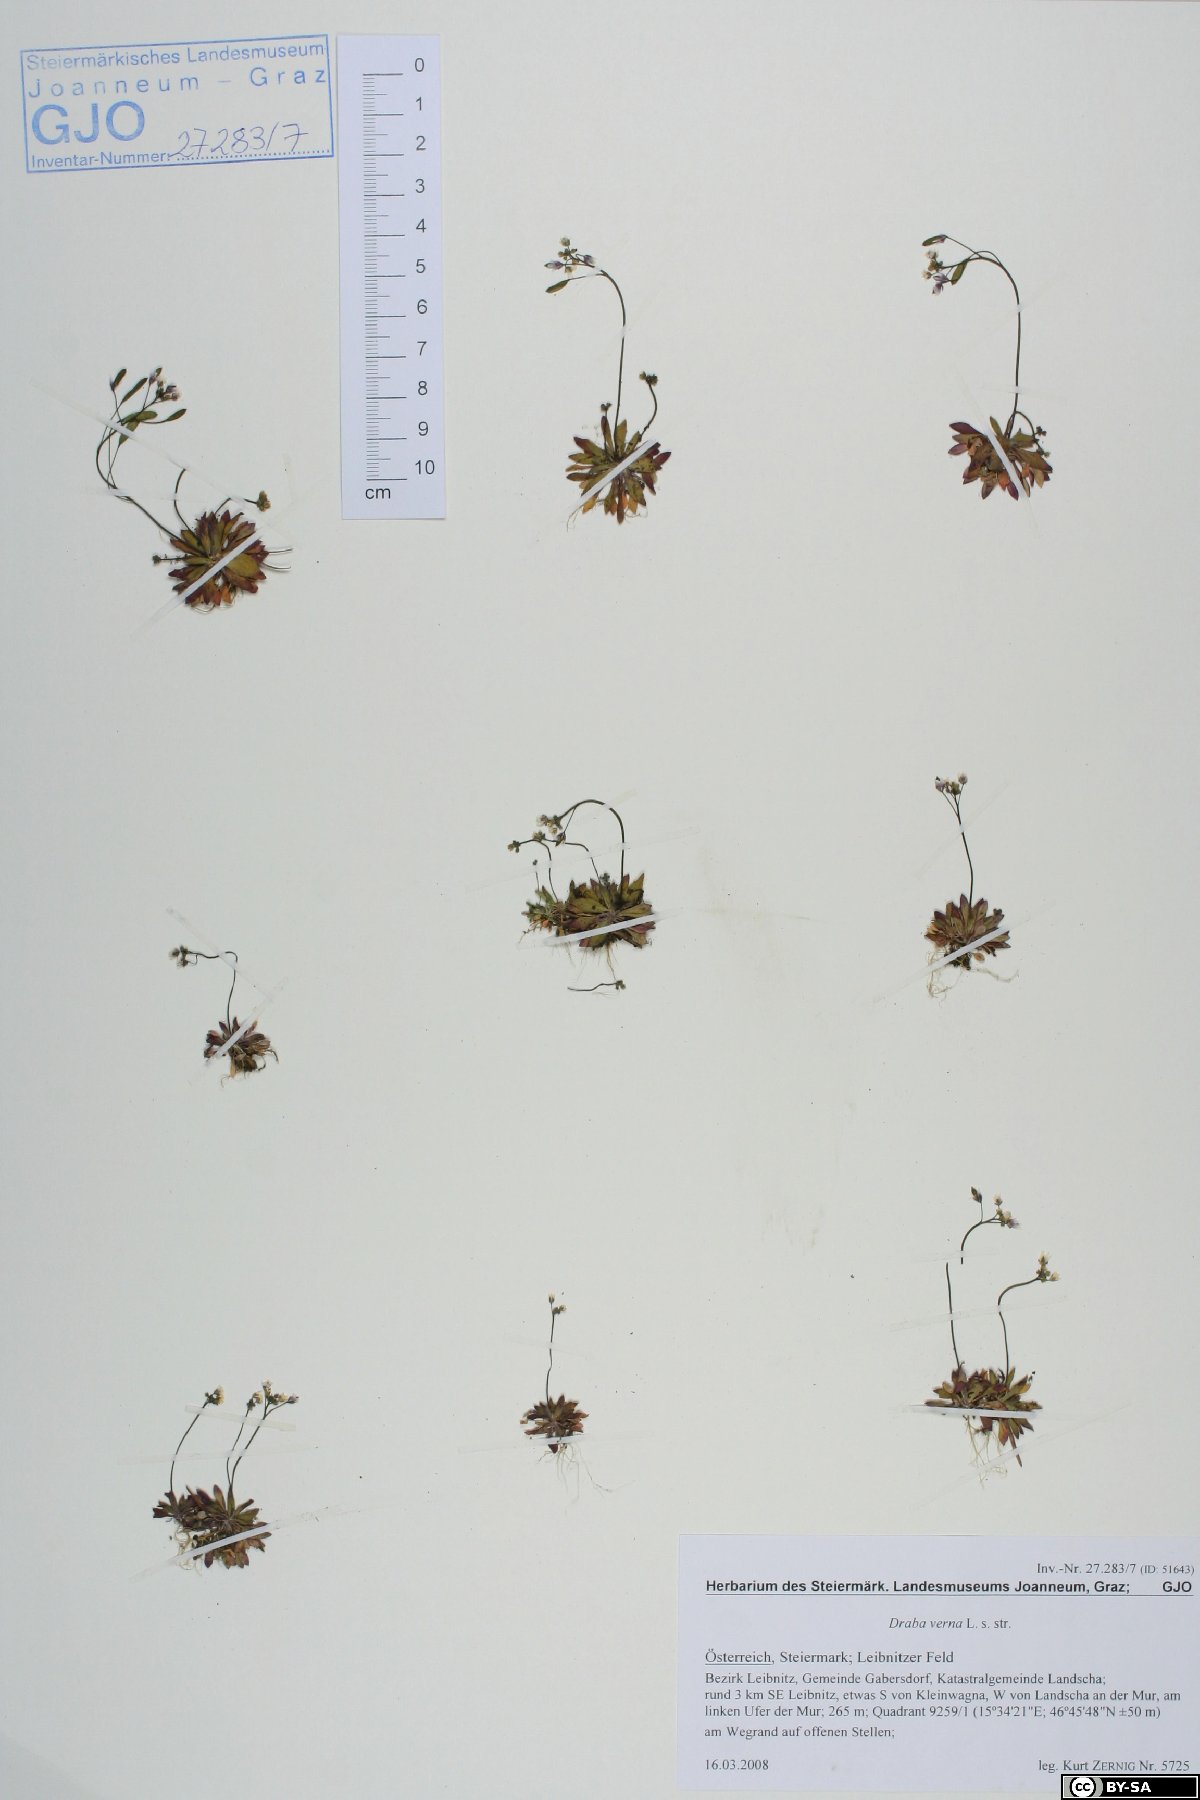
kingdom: Plantae
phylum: Tracheophyta
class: Magnoliopsida
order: Brassicales
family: Brassicaceae
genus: Draba
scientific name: Draba verna
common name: Spring draba
